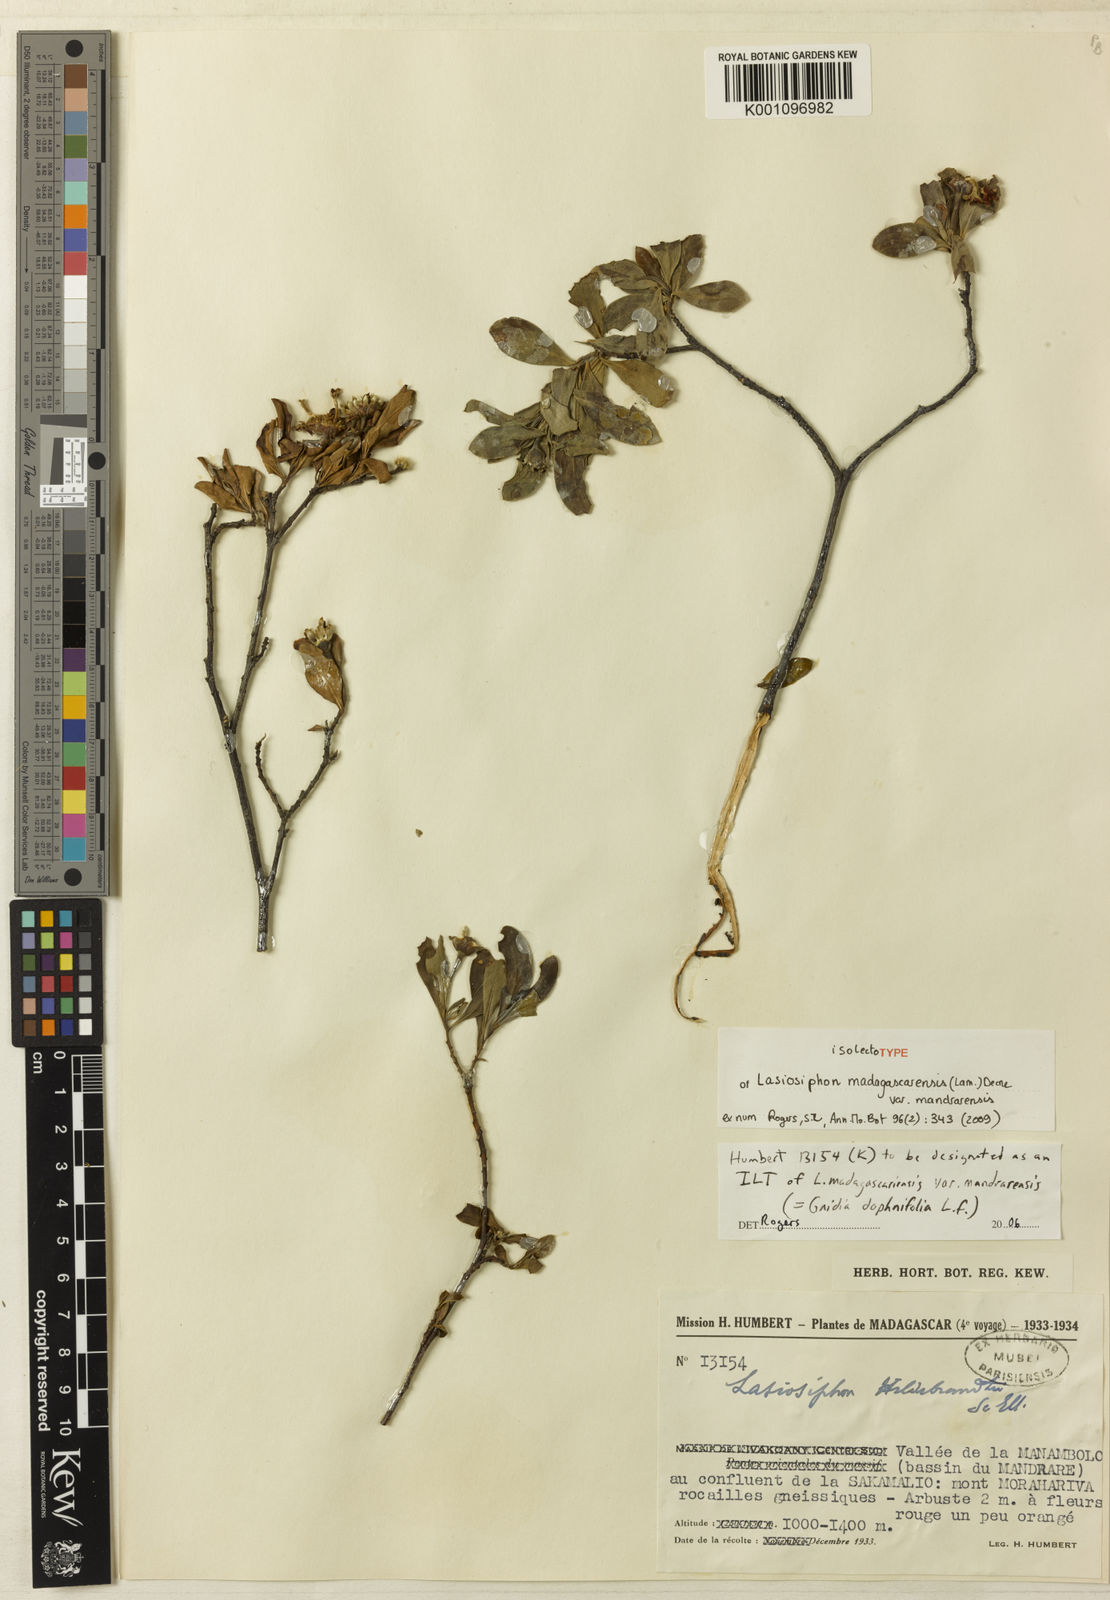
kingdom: Plantae
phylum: Tracheophyta
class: Magnoliopsida
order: Malvales
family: Thymelaeaceae
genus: Gnidia
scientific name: Gnidia daphnifolia
